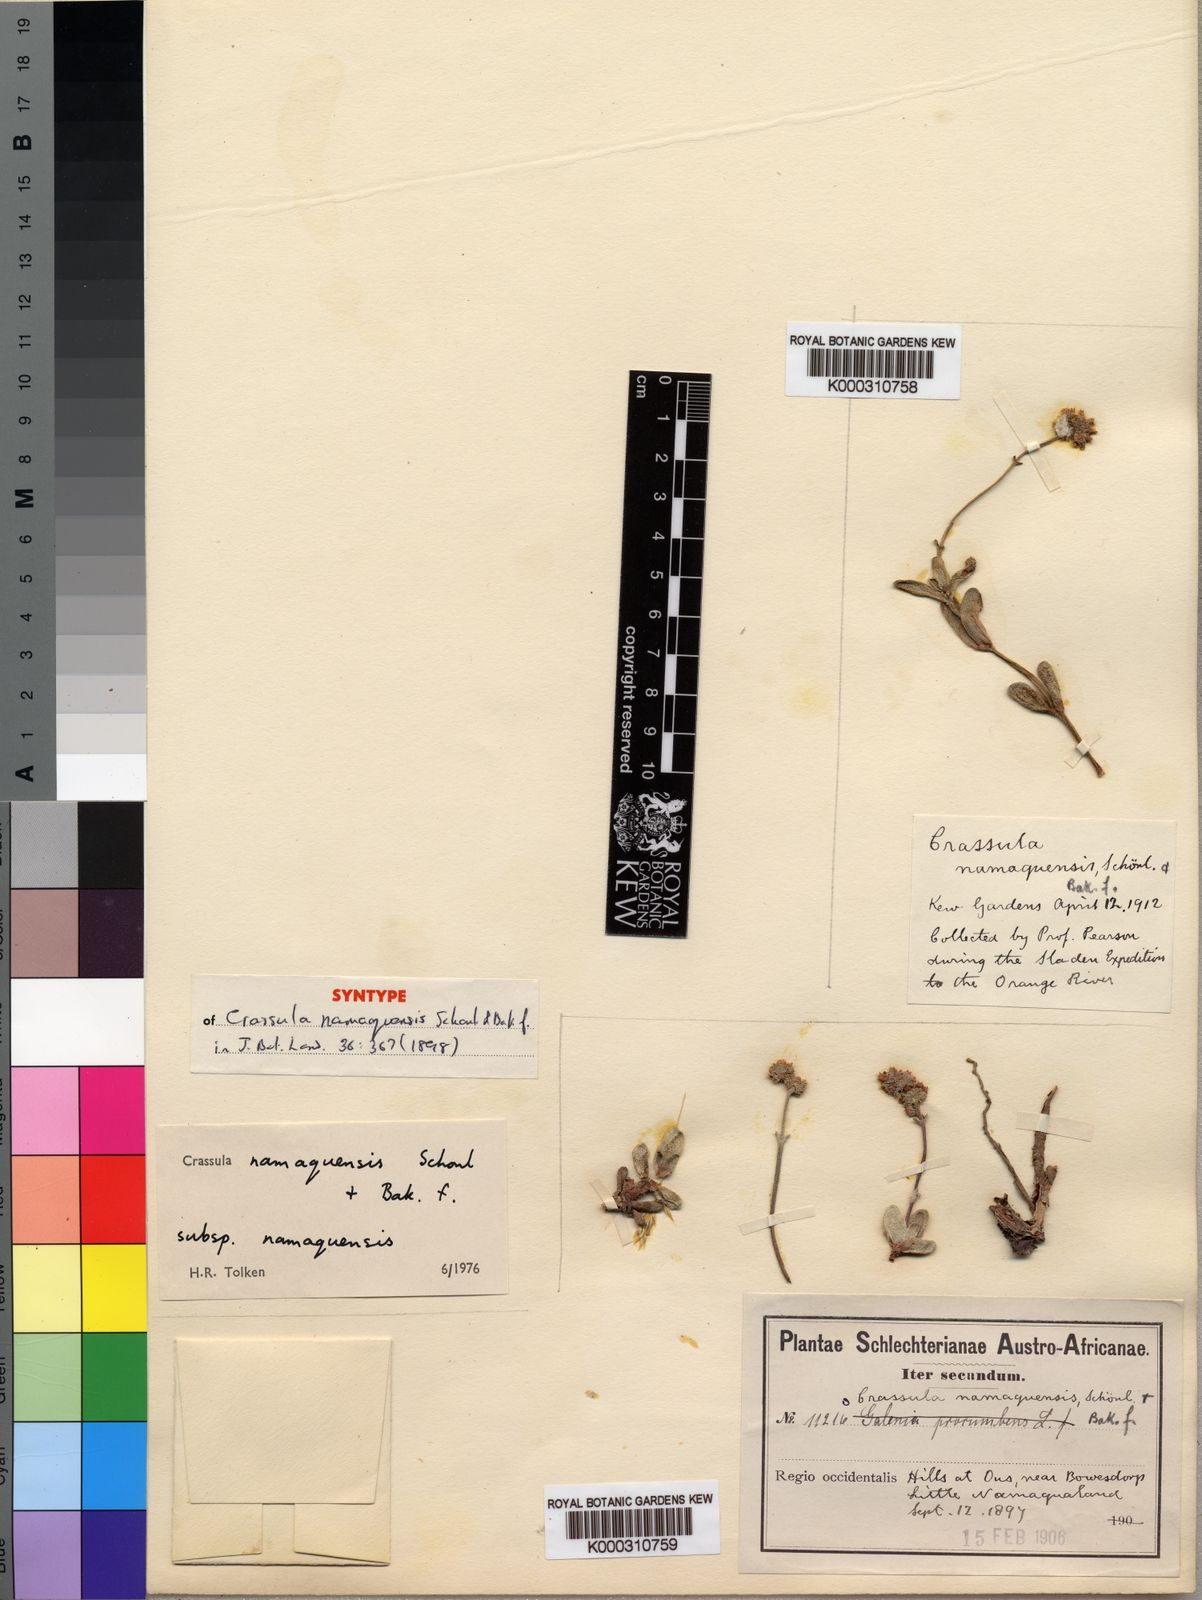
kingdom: Plantae
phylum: Tracheophyta
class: Magnoliopsida
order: Saxifragales
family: Crassulaceae
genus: Crassula
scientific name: Crassula
